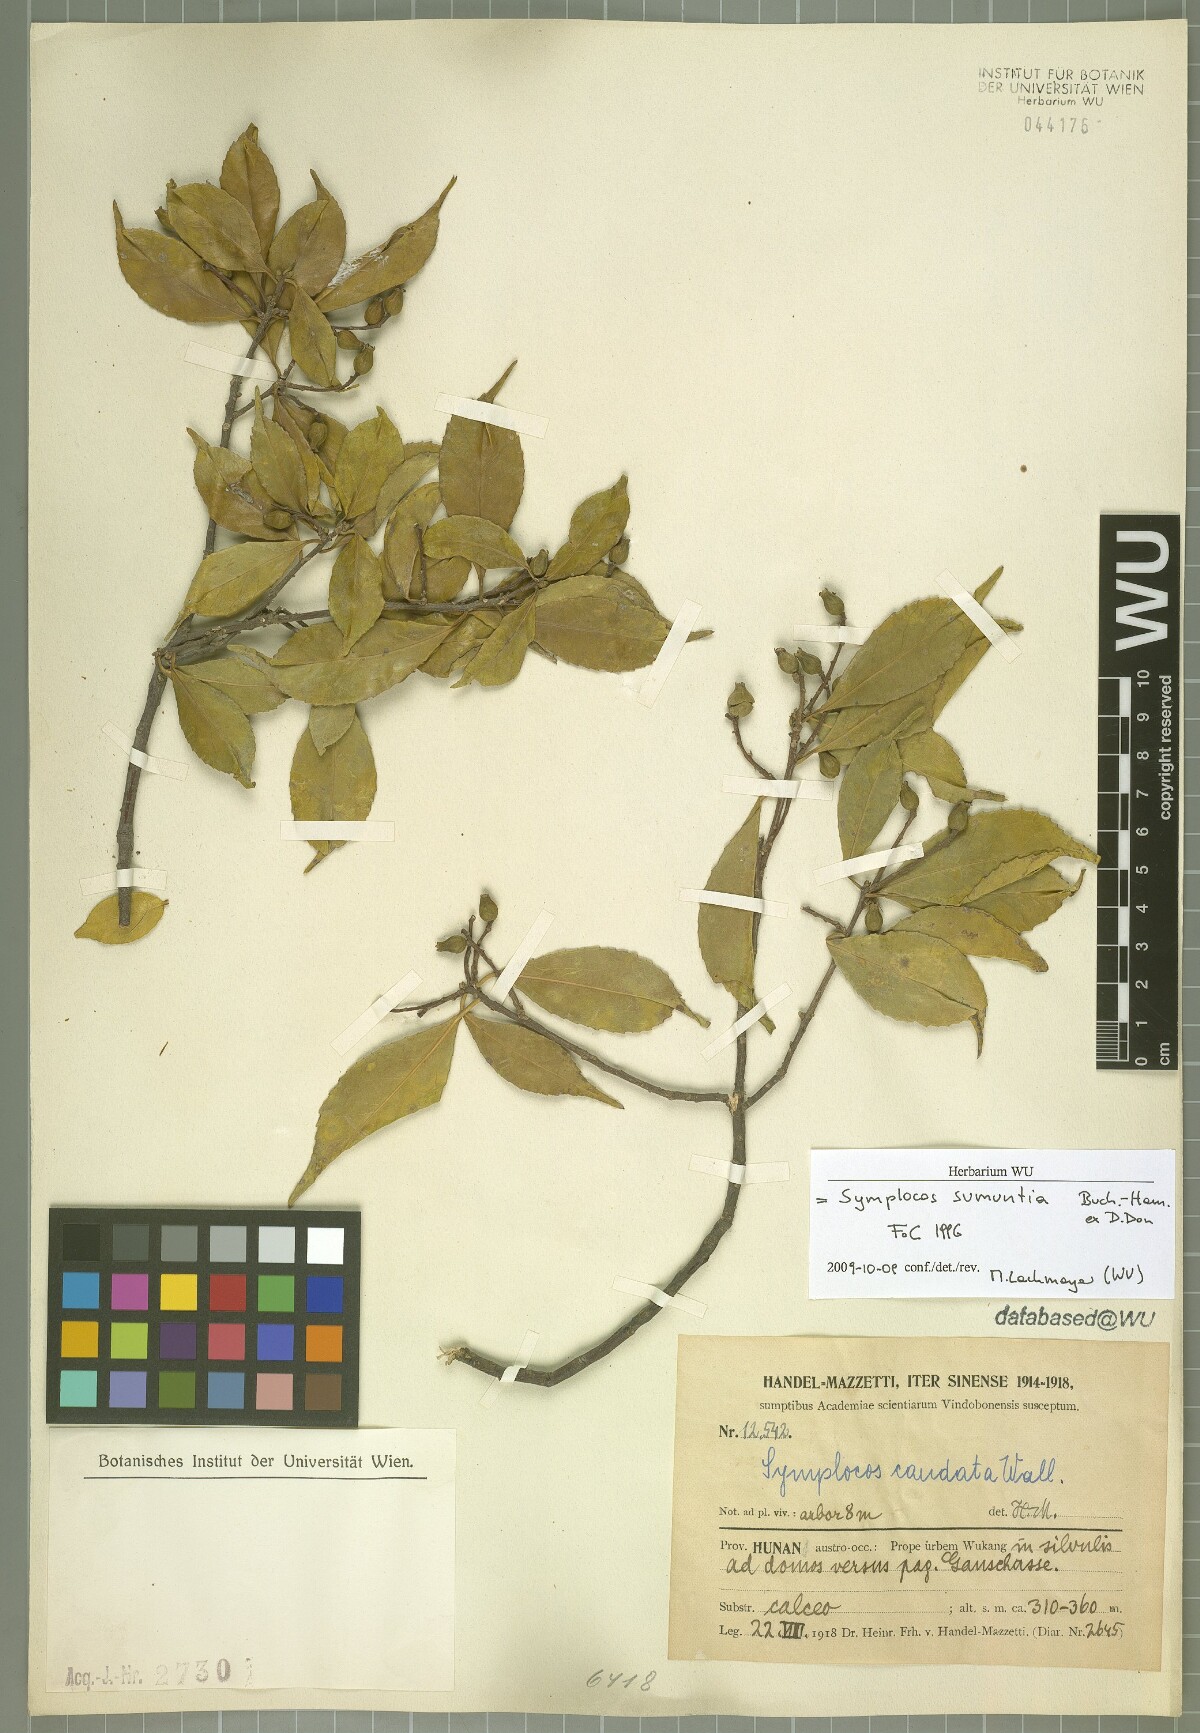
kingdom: Plantae
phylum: Tracheophyta
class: Magnoliopsida
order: Ericales
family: Symplocaceae
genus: Symplocos
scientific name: Symplocos sumuntia
